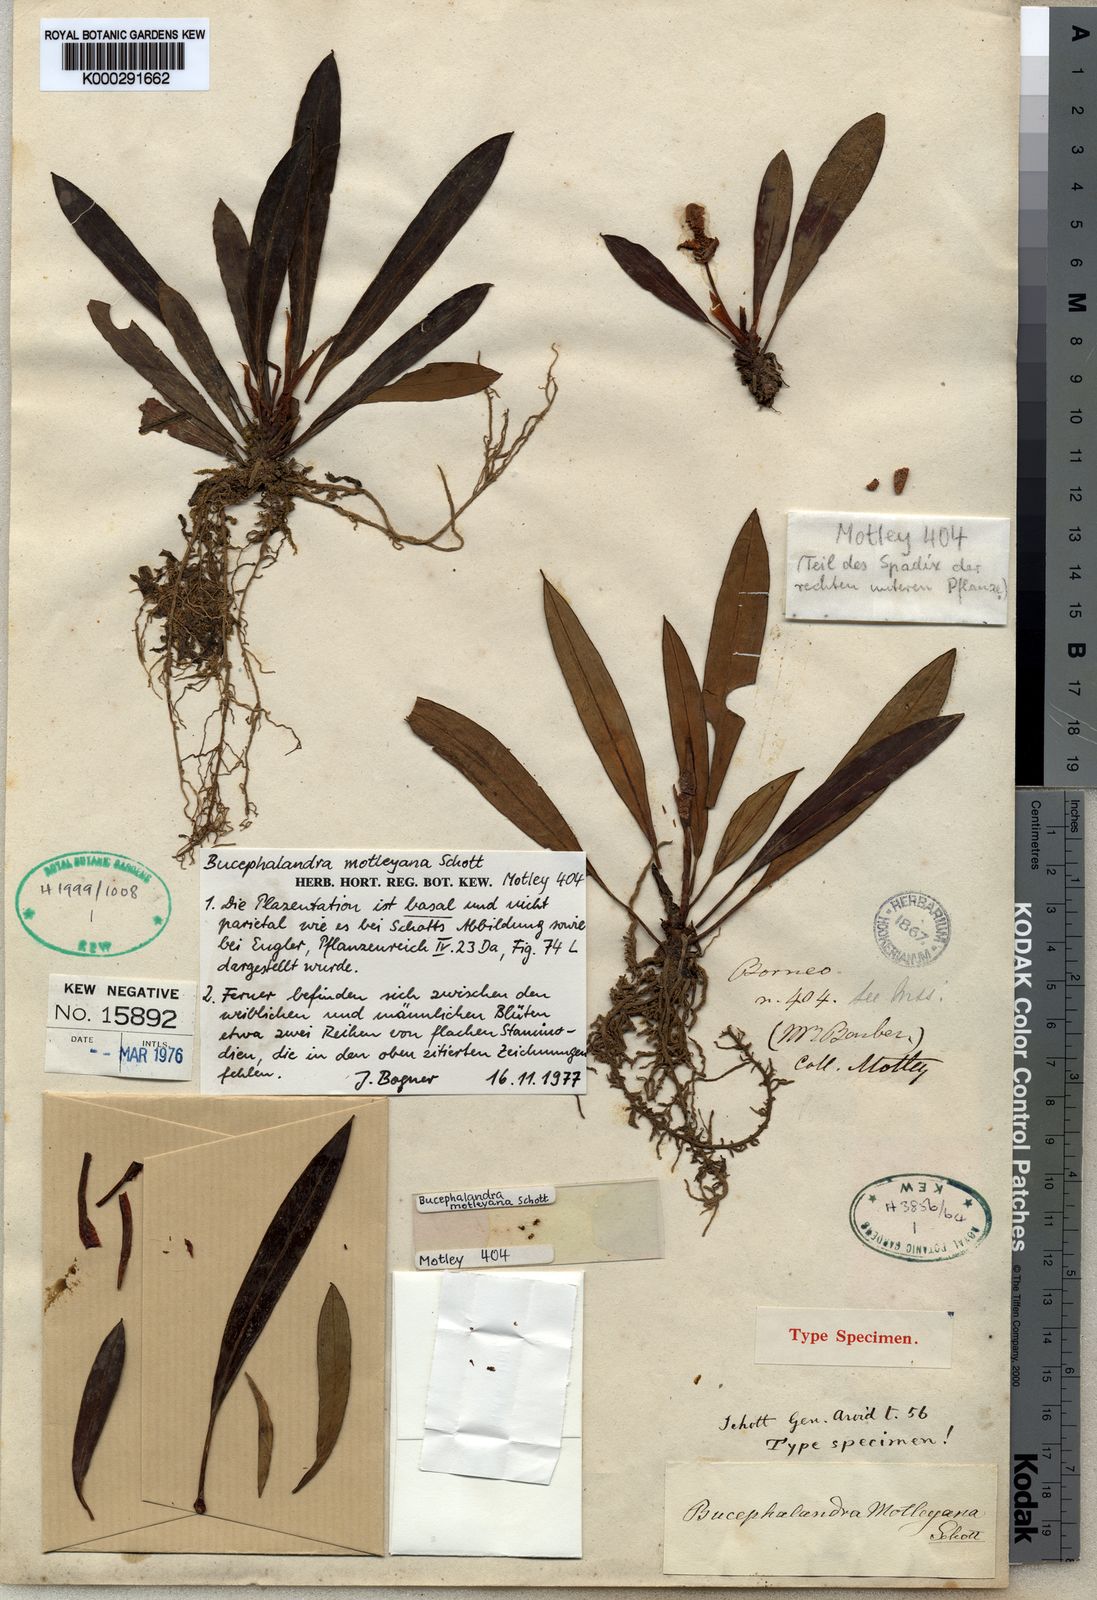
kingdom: Plantae
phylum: Tracheophyta
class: Liliopsida
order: Alismatales
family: Araceae
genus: Bucephalandra
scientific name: Bucephalandra motleyana
